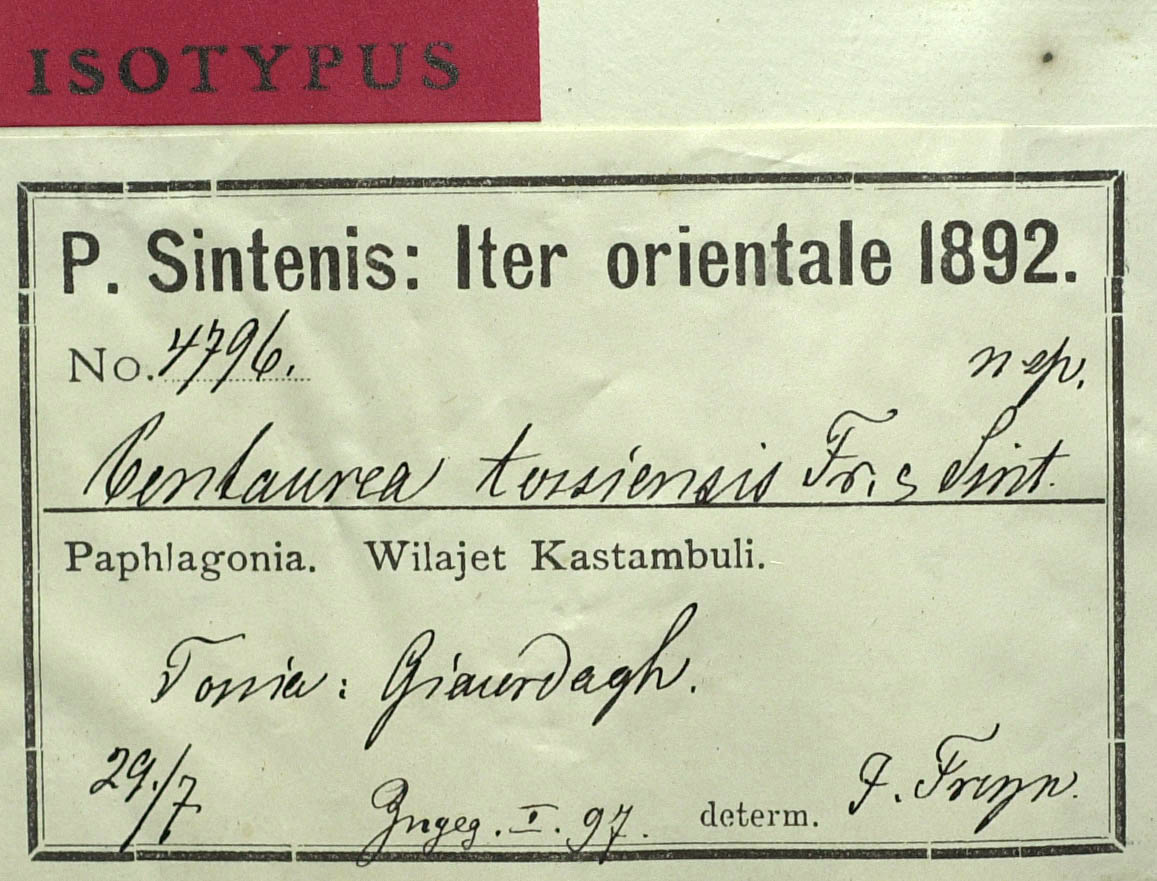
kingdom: Plantae
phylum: Tracheophyta
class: Magnoliopsida
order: Asterales
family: Asteraceae
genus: Centaurea
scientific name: Centaurea tossiensis
